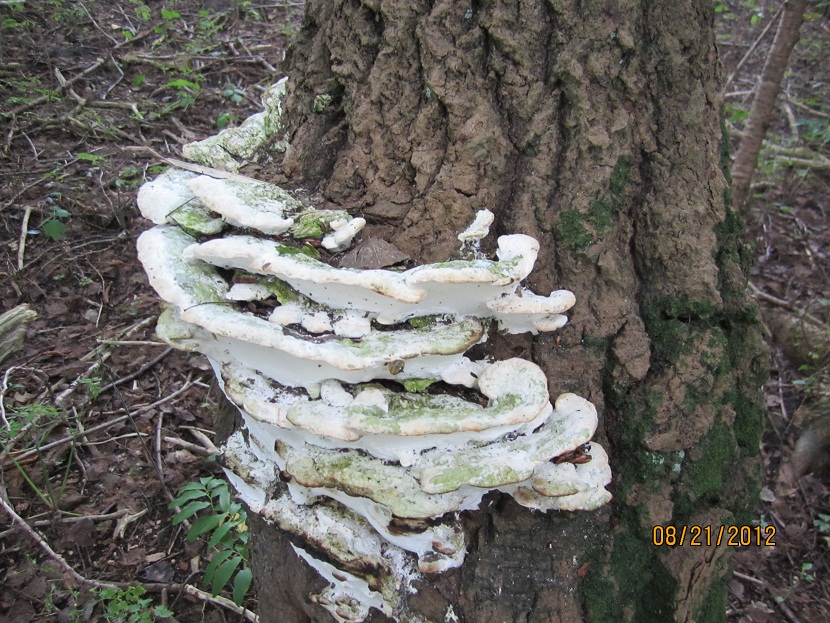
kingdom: Fungi
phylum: Basidiomycota
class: Agaricomycetes
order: Hymenochaetales
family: Oxyporaceae
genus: Oxyporus
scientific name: Oxyporus populinus
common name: sammenvokset trylleporesvamp
